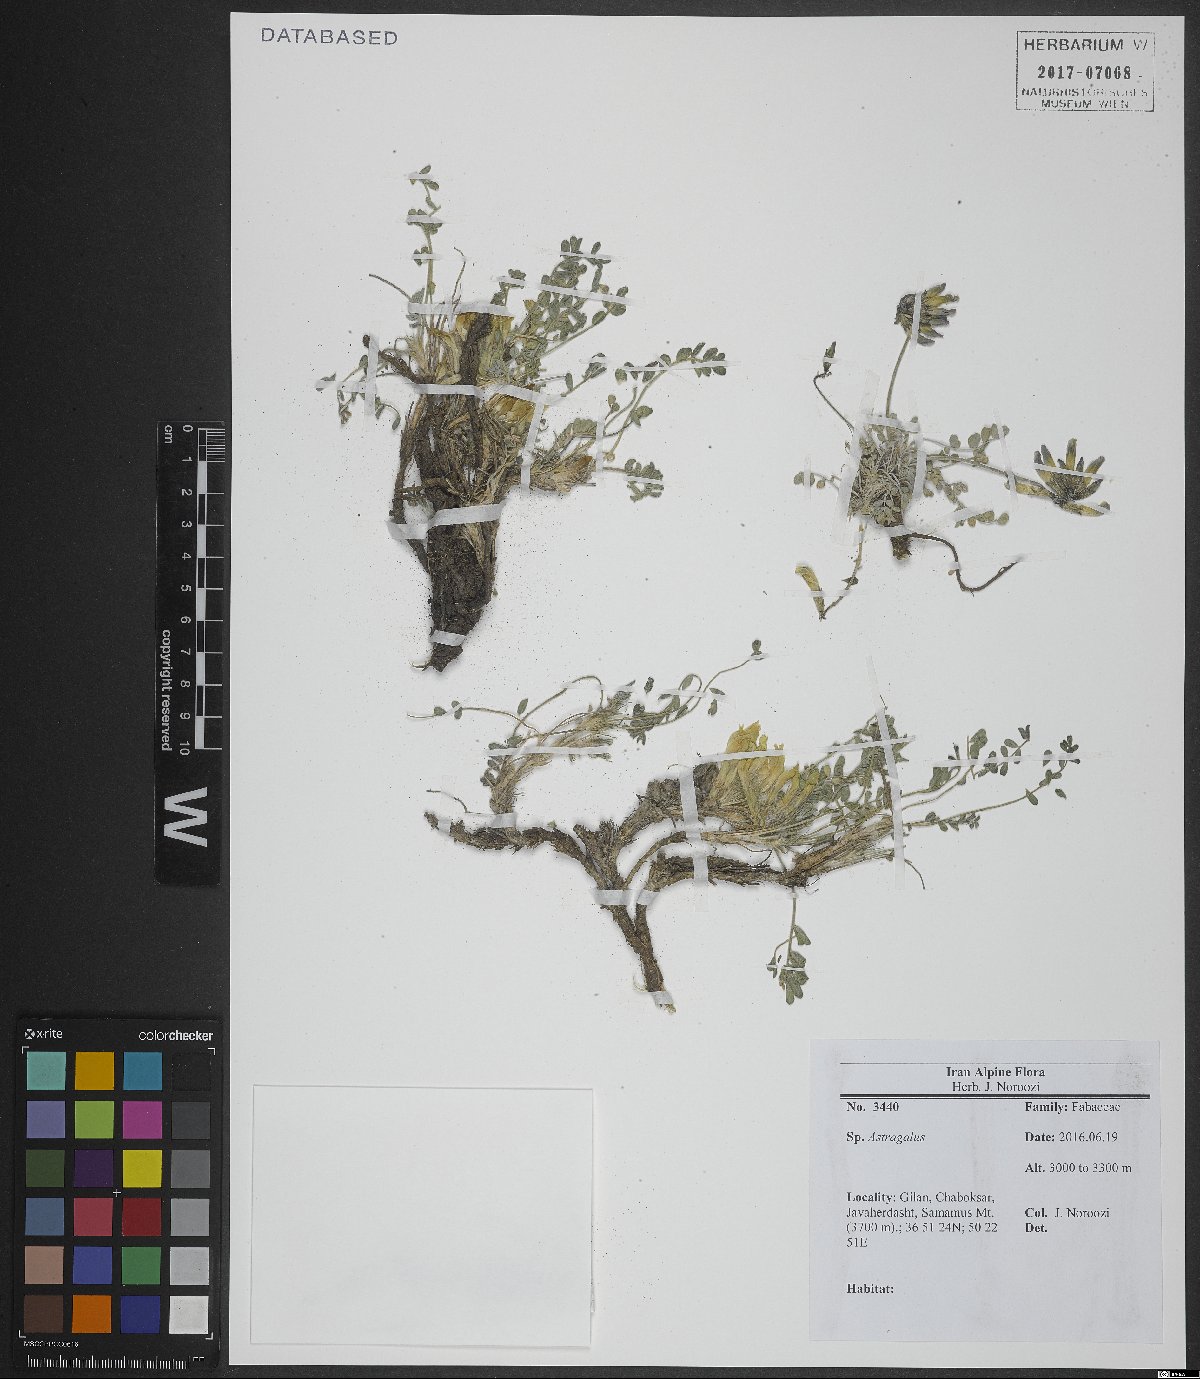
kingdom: Plantae
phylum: Tracheophyta
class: Magnoliopsida
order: Fabales
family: Fabaceae
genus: Astragalus
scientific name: Astragalus
